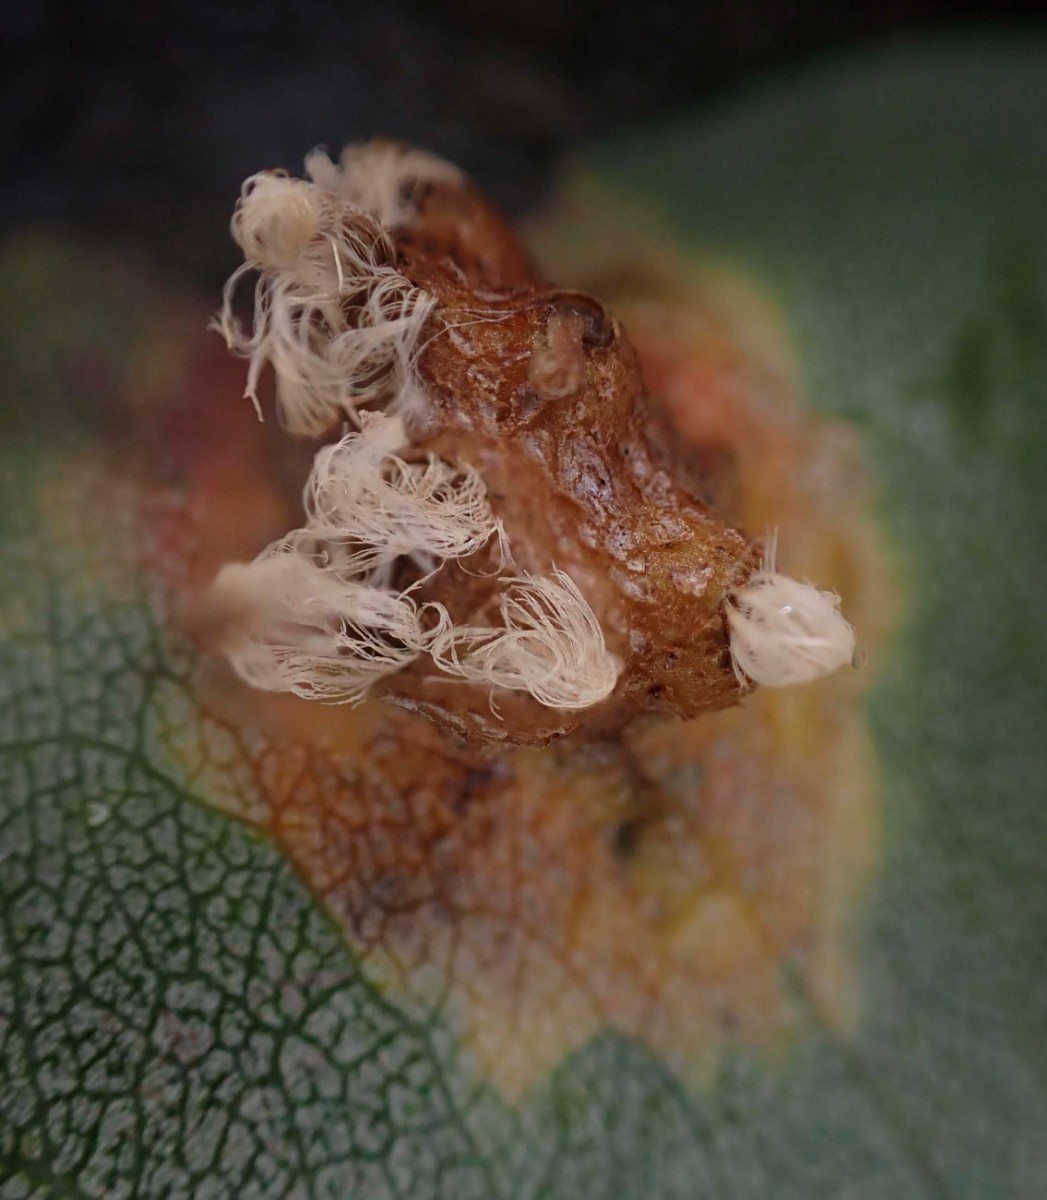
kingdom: Fungi
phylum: Basidiomycota
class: Pucciniomycetes
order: Pucciniales
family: Gymnosporangiaceae
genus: Gymnosporangium
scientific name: Gymnosporangium sabinae
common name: pæregitter-bævrerust
